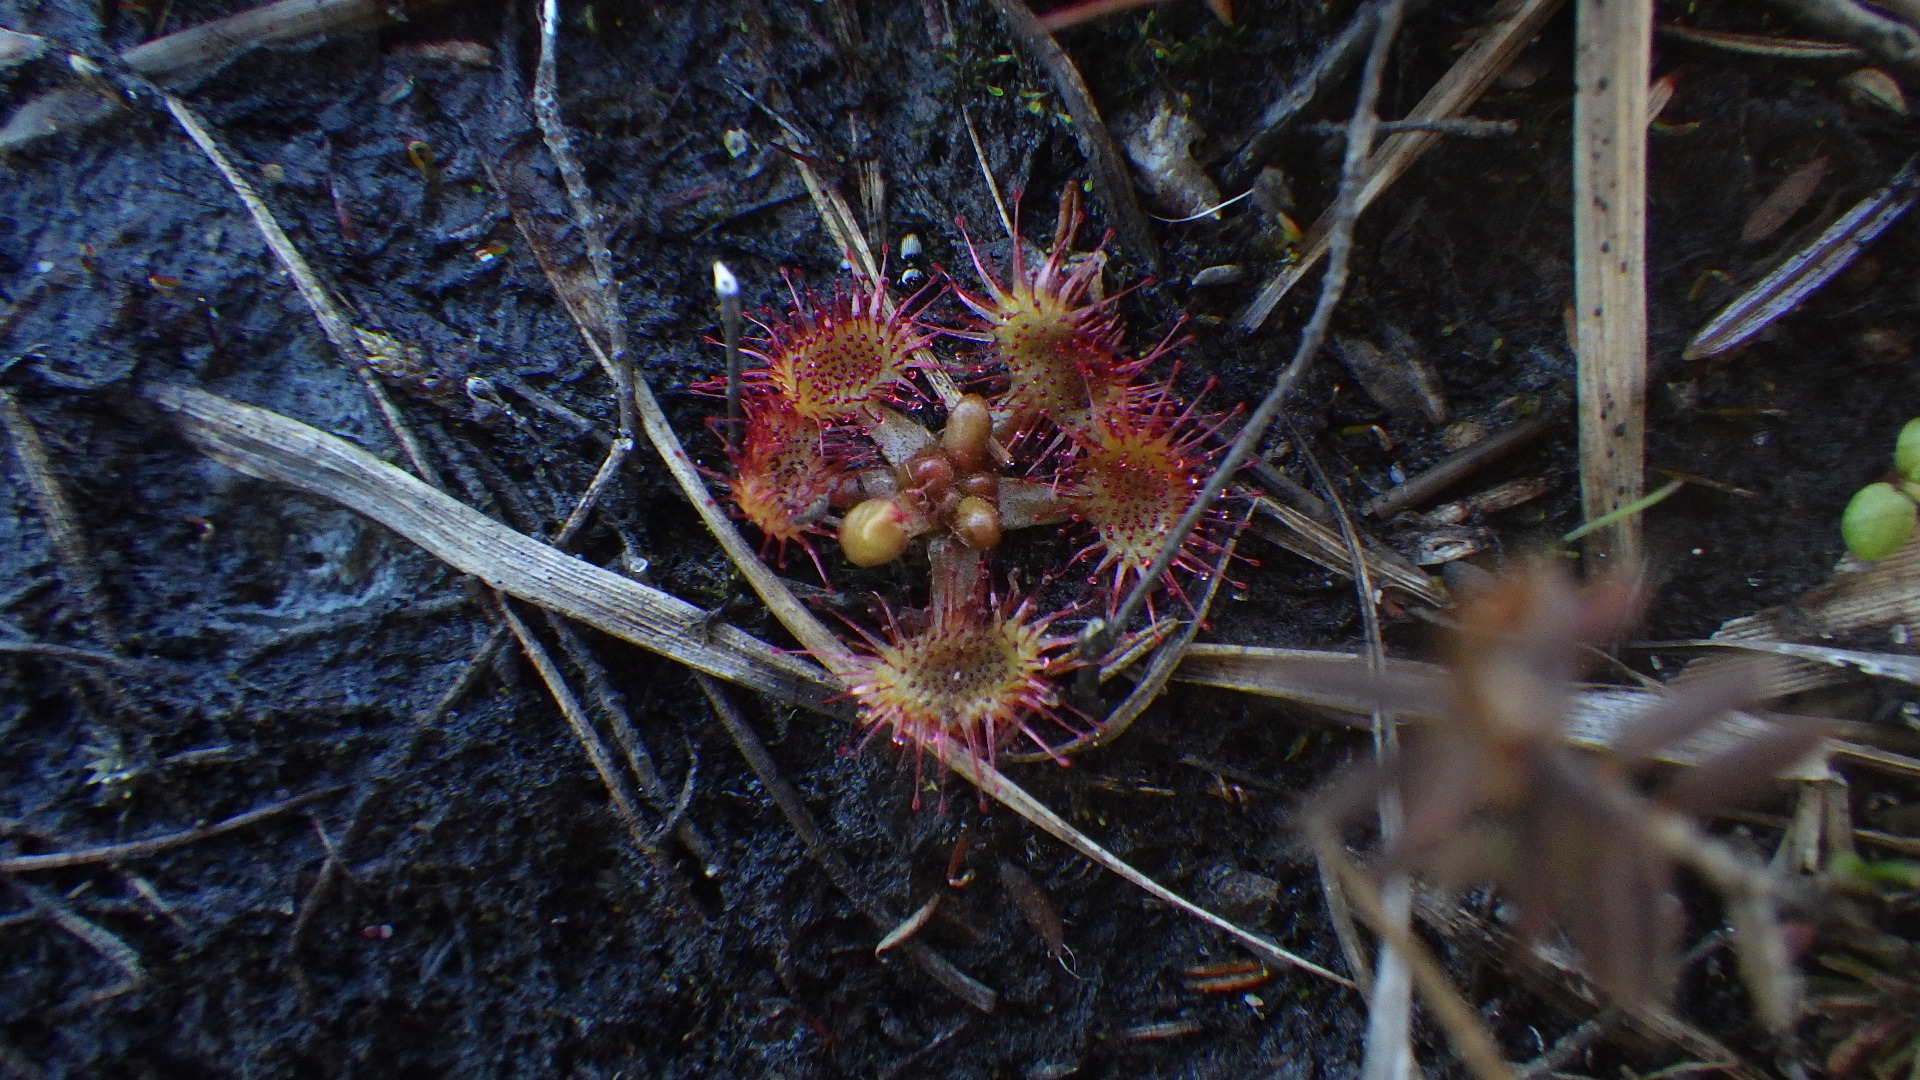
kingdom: Plantae
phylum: Tracheophyta
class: Magnoliopsida
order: Caryophyllales
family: Droseraceae
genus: Drosera
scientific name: Drosera rotundifolia
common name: Rundbladet soldug
